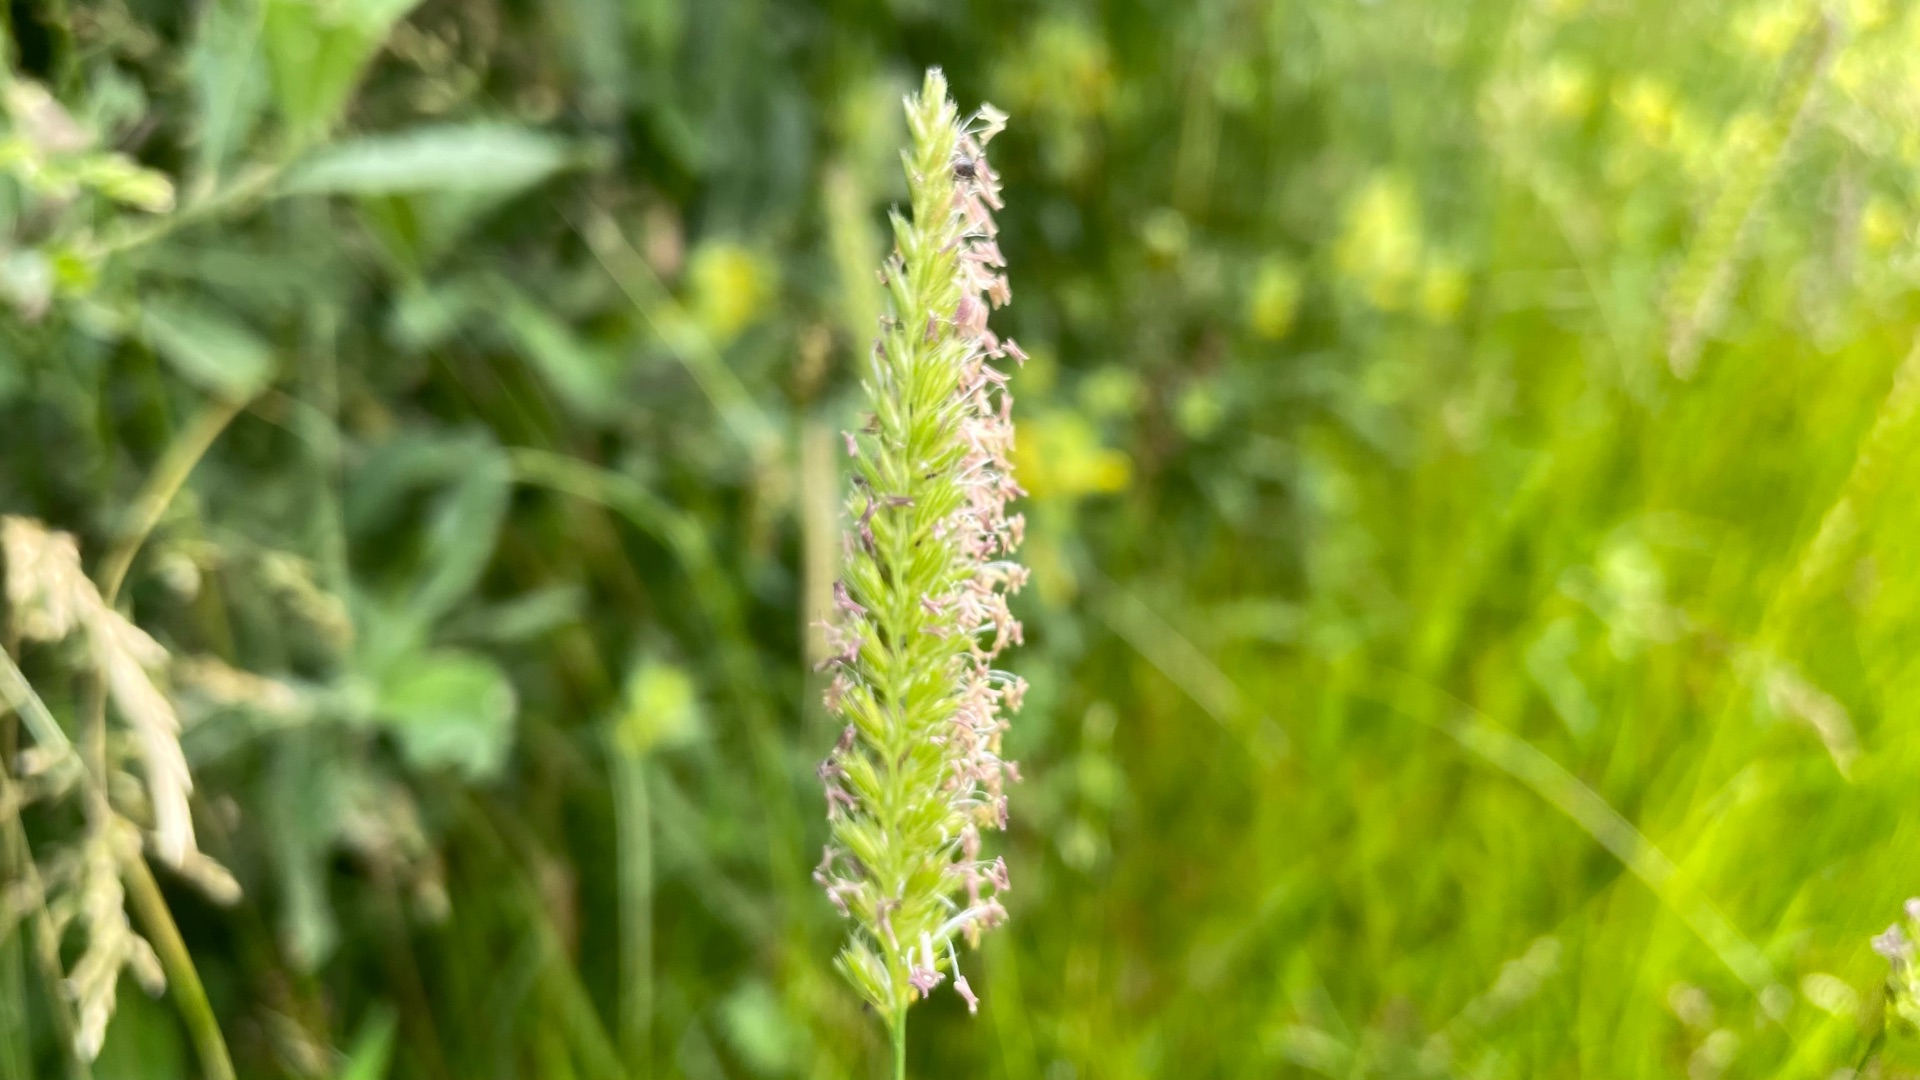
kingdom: Plantae
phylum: Tracheophyta
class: Liliopsida
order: Poales
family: Poaceae
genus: Cynosurus
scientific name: Cynosurus cristatus
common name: Kamgræs
